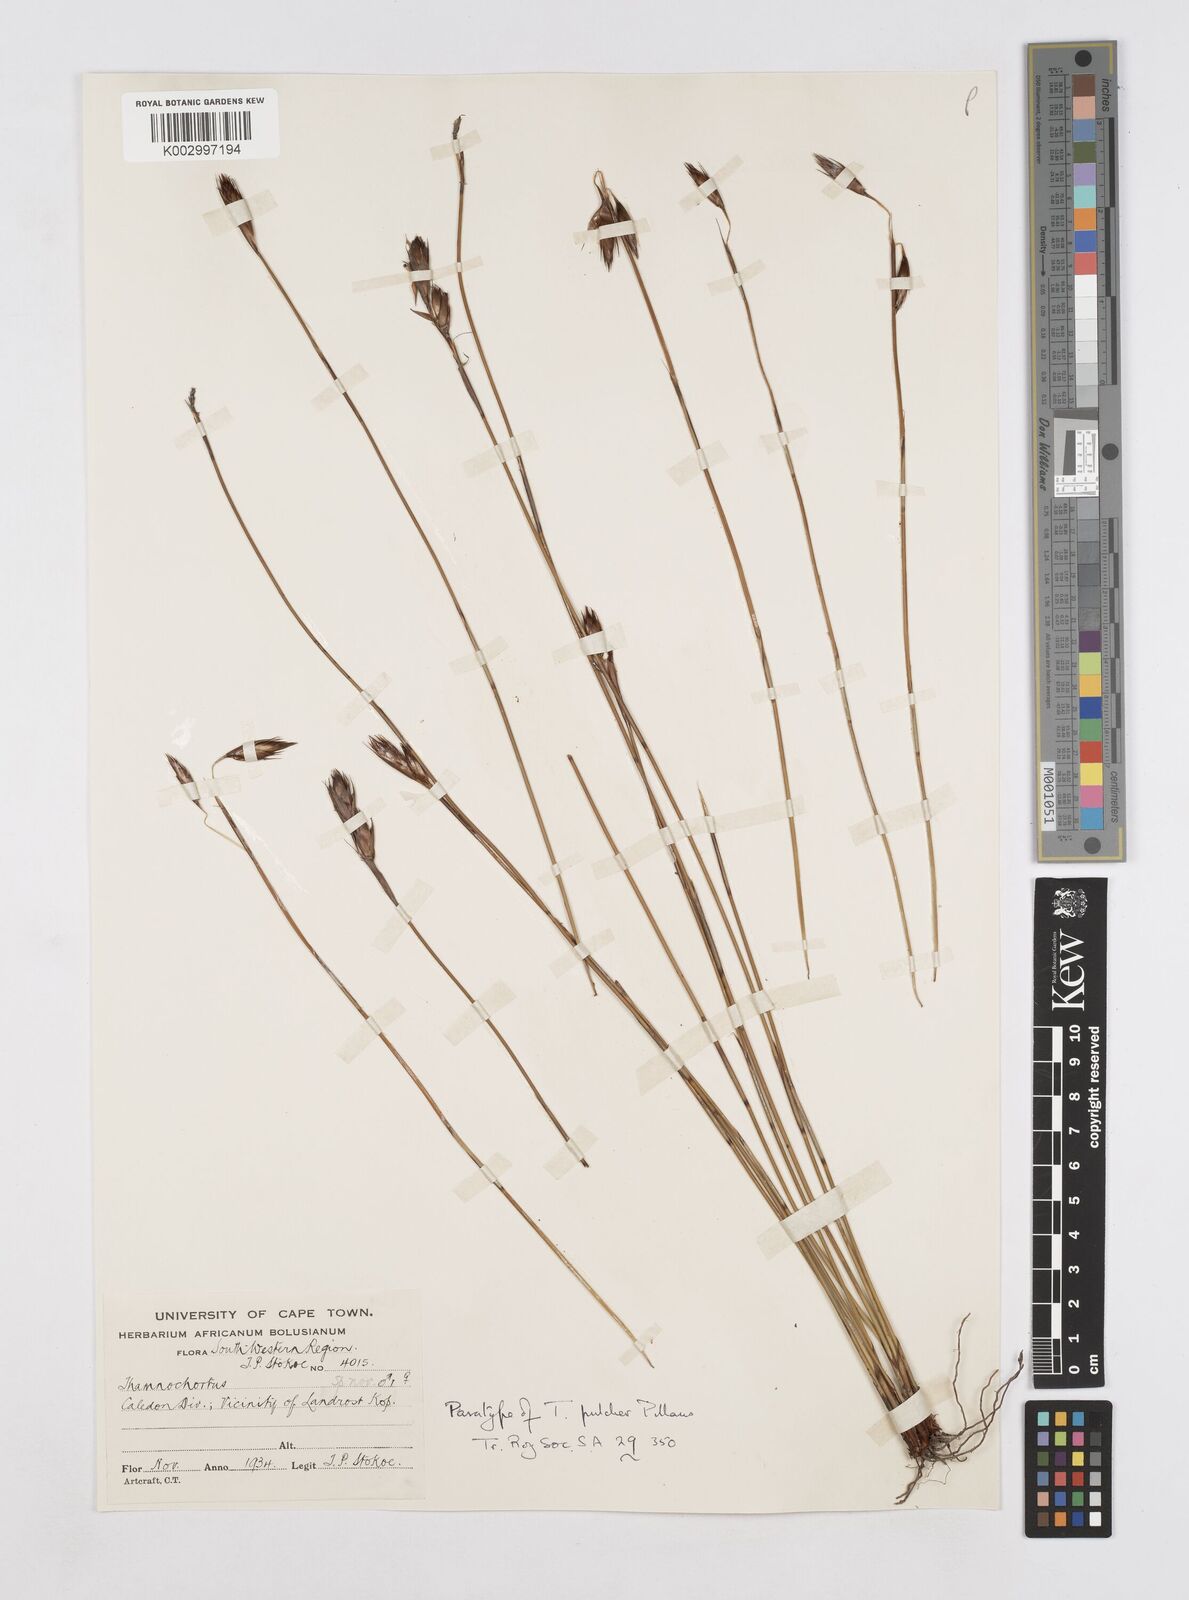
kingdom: Plantae
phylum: Tracheophyta
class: Liliopsida
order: Poales
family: Restionaceae
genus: Thamnochortus
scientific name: Thamnochortus pulcher
